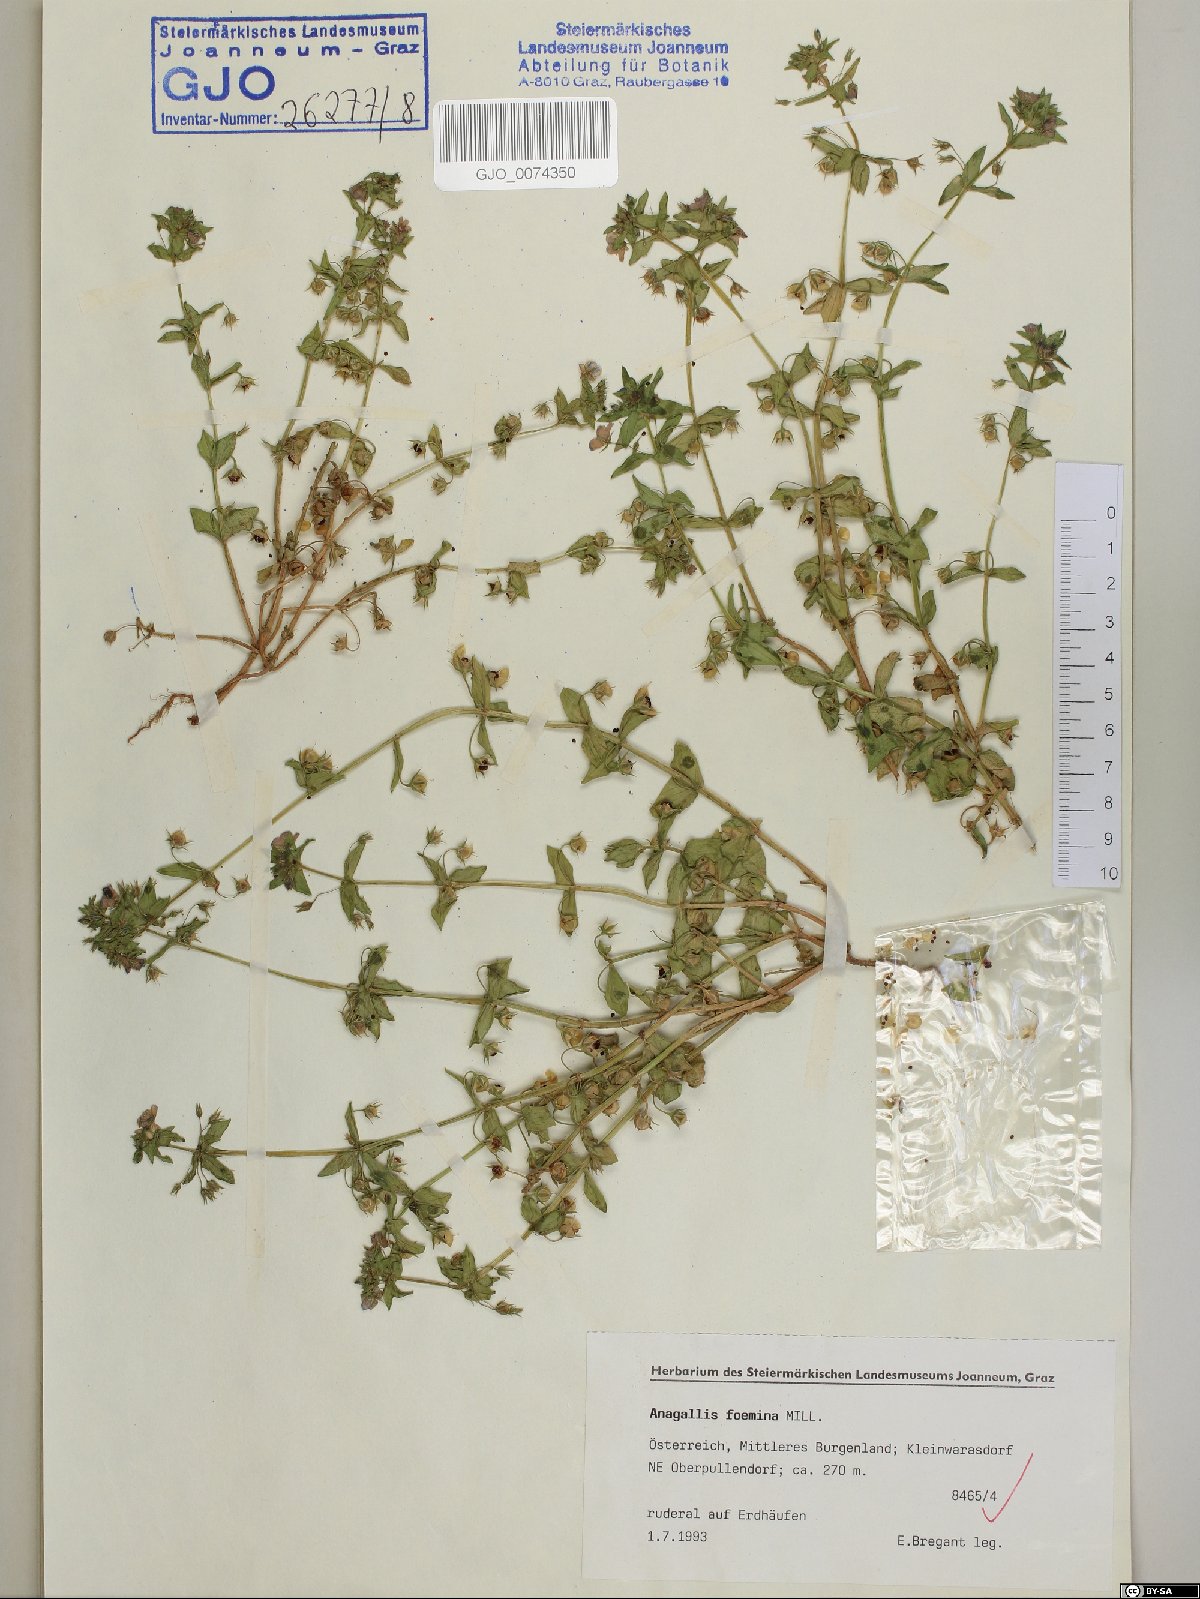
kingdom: Plantae
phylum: Tracheophyta
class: Magnoliopsida
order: Ericales
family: Primulaceae
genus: Lysimachia
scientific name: Lysimachia foemina
